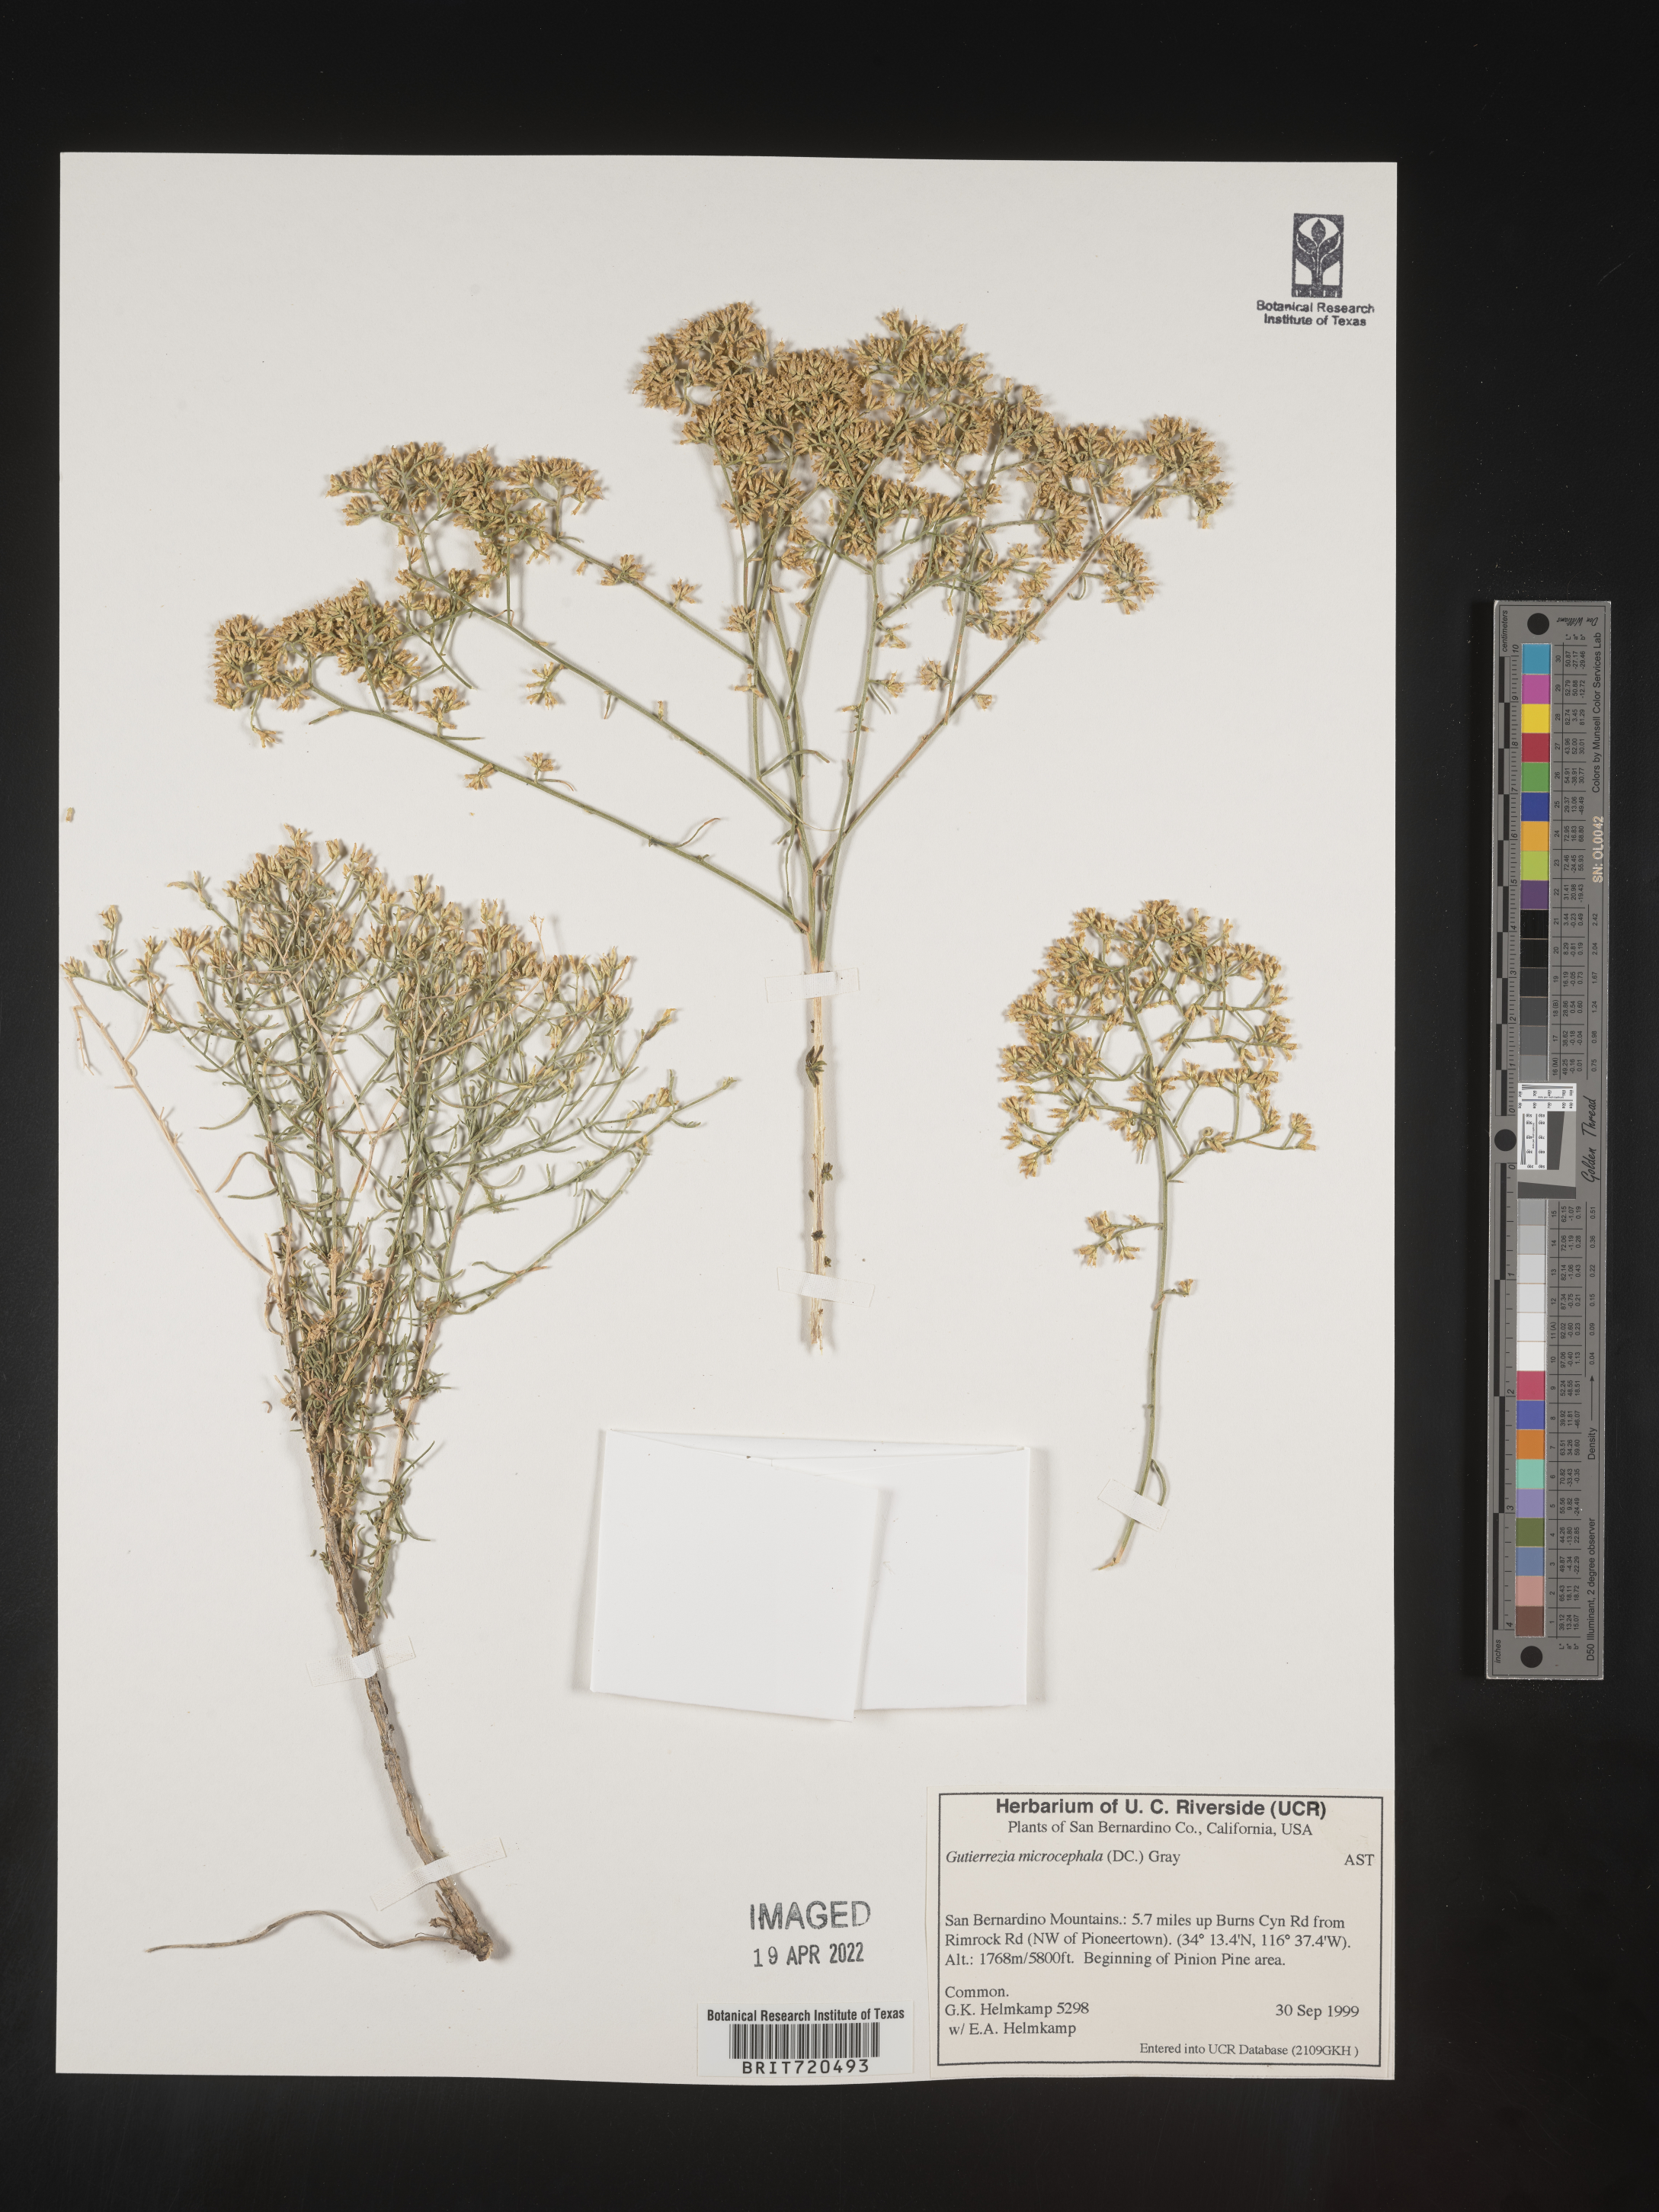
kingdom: Plantae
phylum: Tracheophyta
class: Magnoliopsida
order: Asterales
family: Asteraceae
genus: Gutierrezia
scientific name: Gutierrezia microcephala
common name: Thread snakeweed
